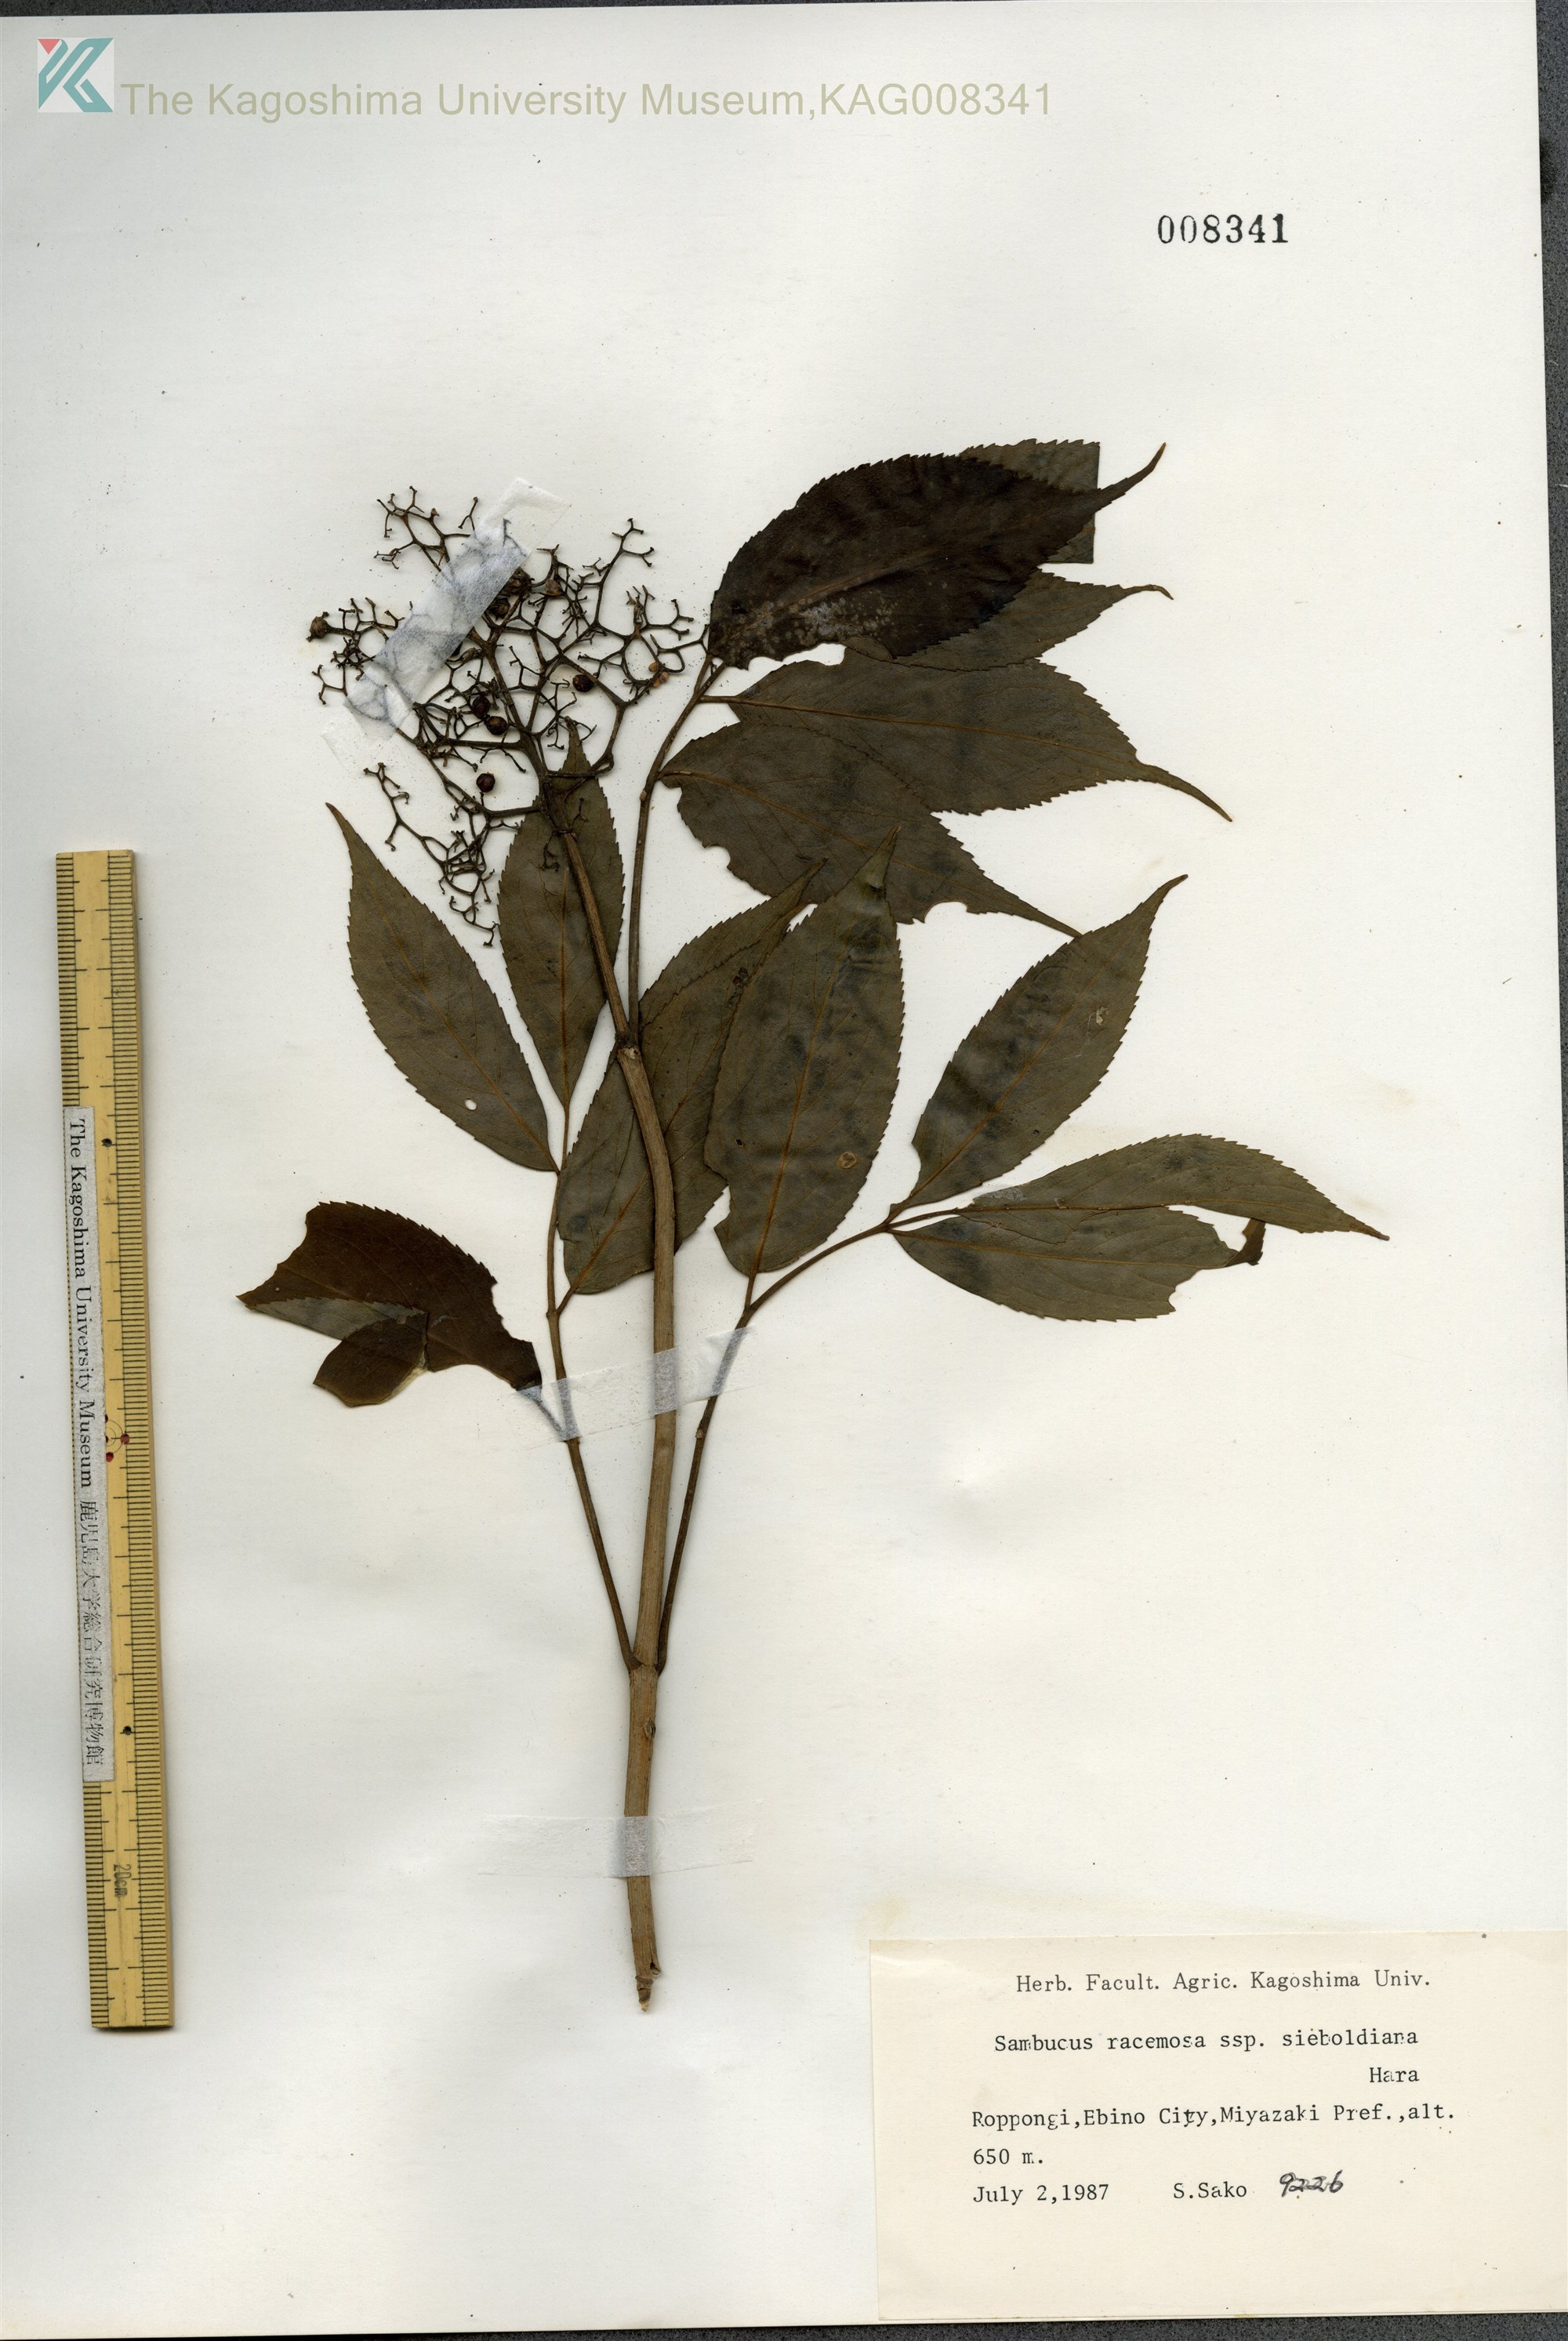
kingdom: Plantae
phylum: Tracheophyta
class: Magnoliopsida
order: Dipsacales
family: Viburnaceae
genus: Sambucus
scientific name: Sambucus sieboldiana
